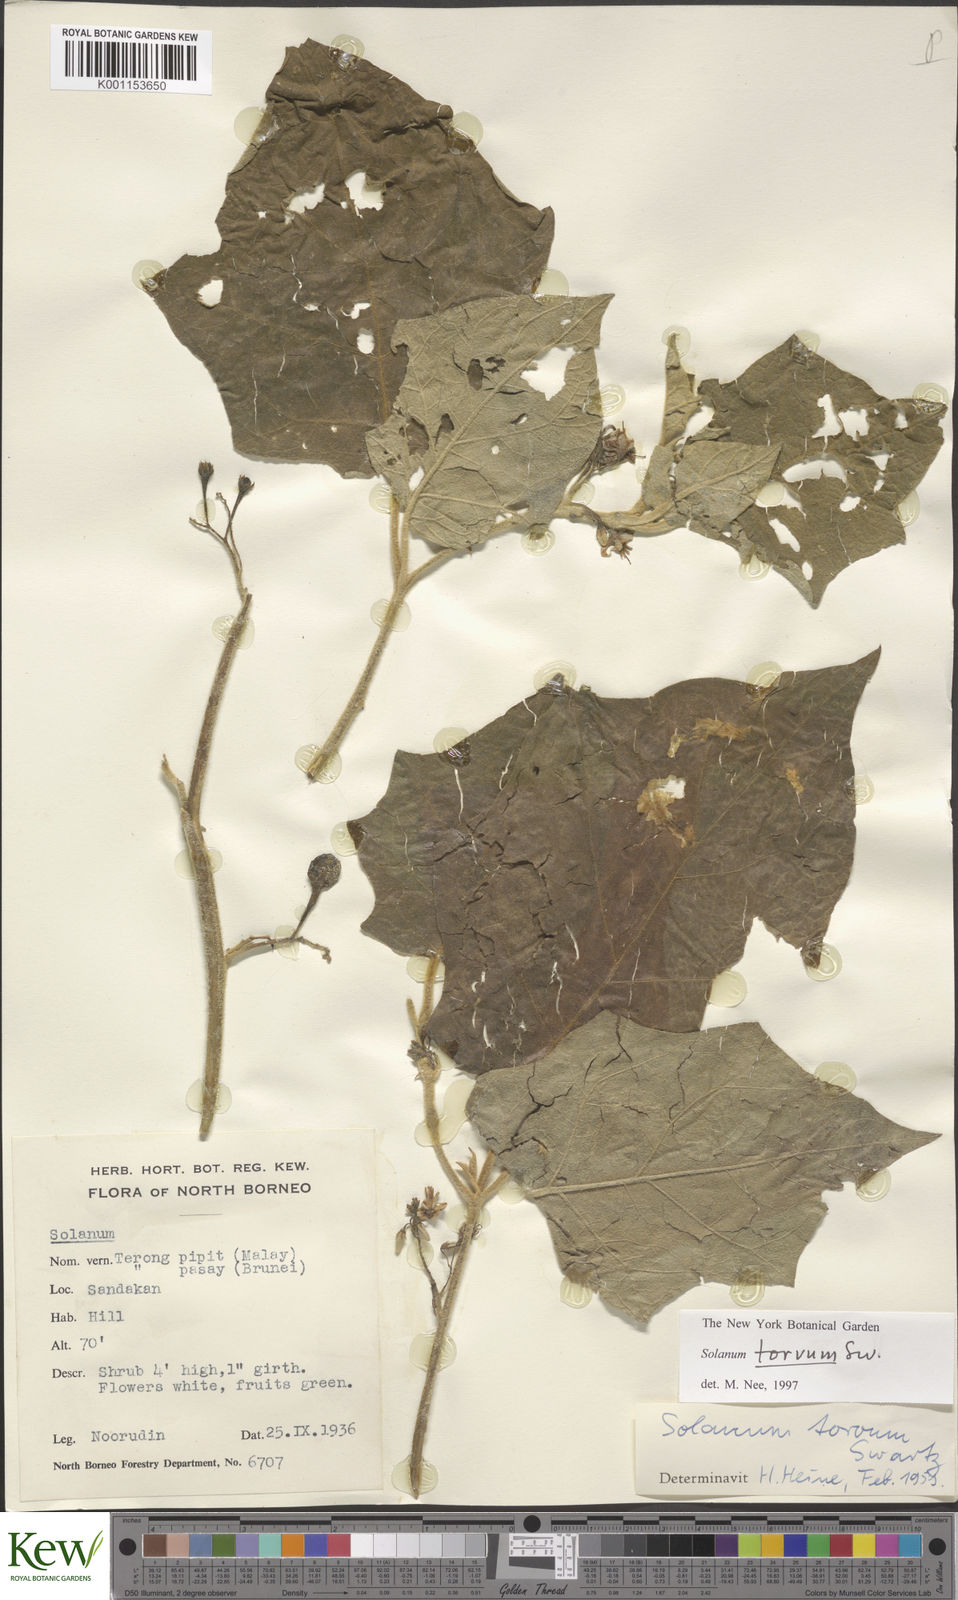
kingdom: Plantae
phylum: Tracheophyta
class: Magnoliopsida
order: Solanales
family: Solanaceae
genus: Solanum
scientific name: Solanum torvum
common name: Turkey berry
